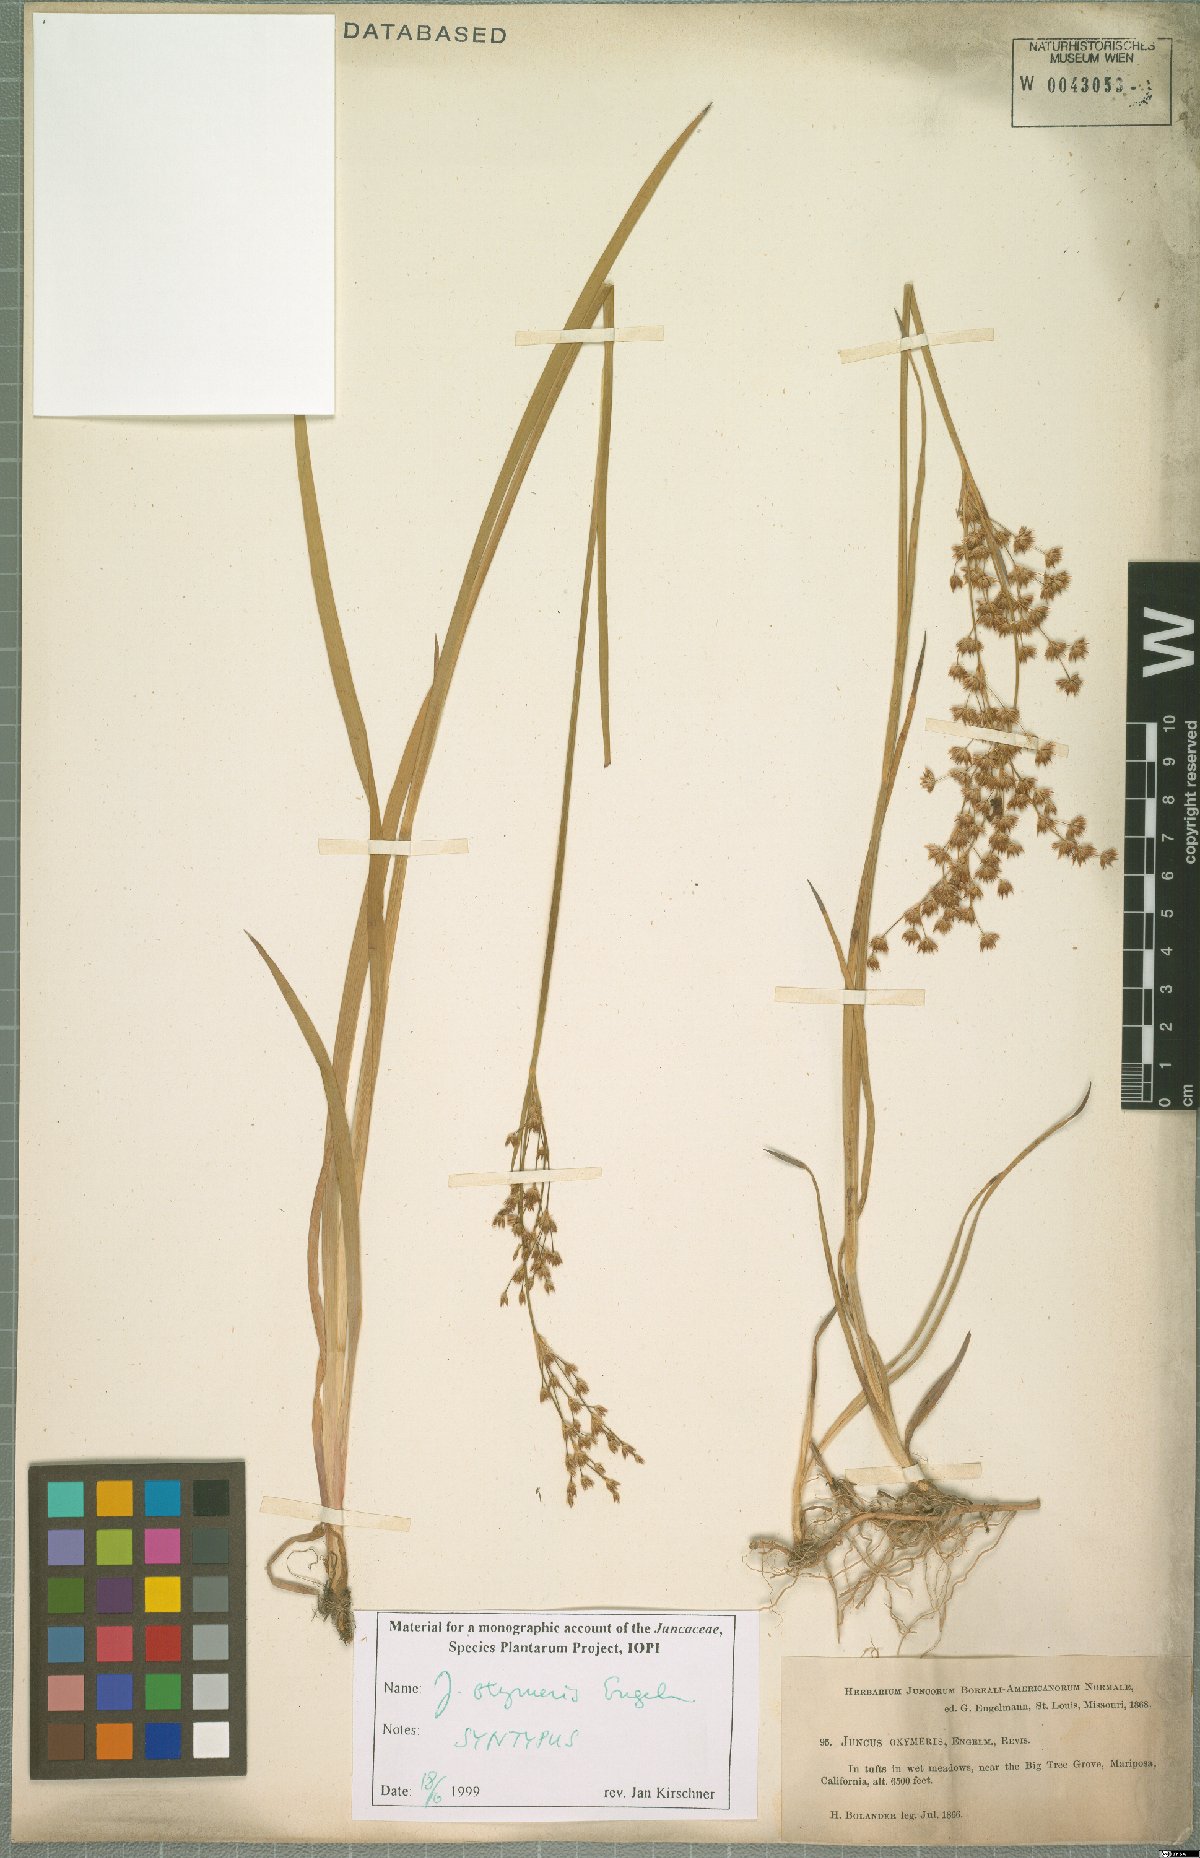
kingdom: Plantae
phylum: Tracheophyta
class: Liliopsida
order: Poales
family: Juncaceae
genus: Juncus
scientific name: Juncus oxymeris
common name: Pointed rush
